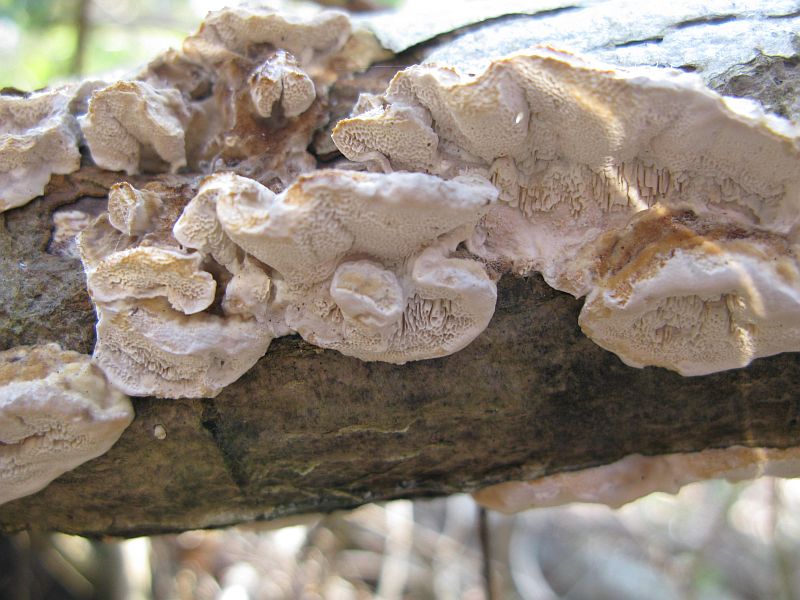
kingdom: Fungi
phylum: Basidiomycota
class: Agaricomycetes
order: Polyporales
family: Polyporaceae
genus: Trametes
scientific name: Trametes versicolor
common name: broget læderporesvamp
